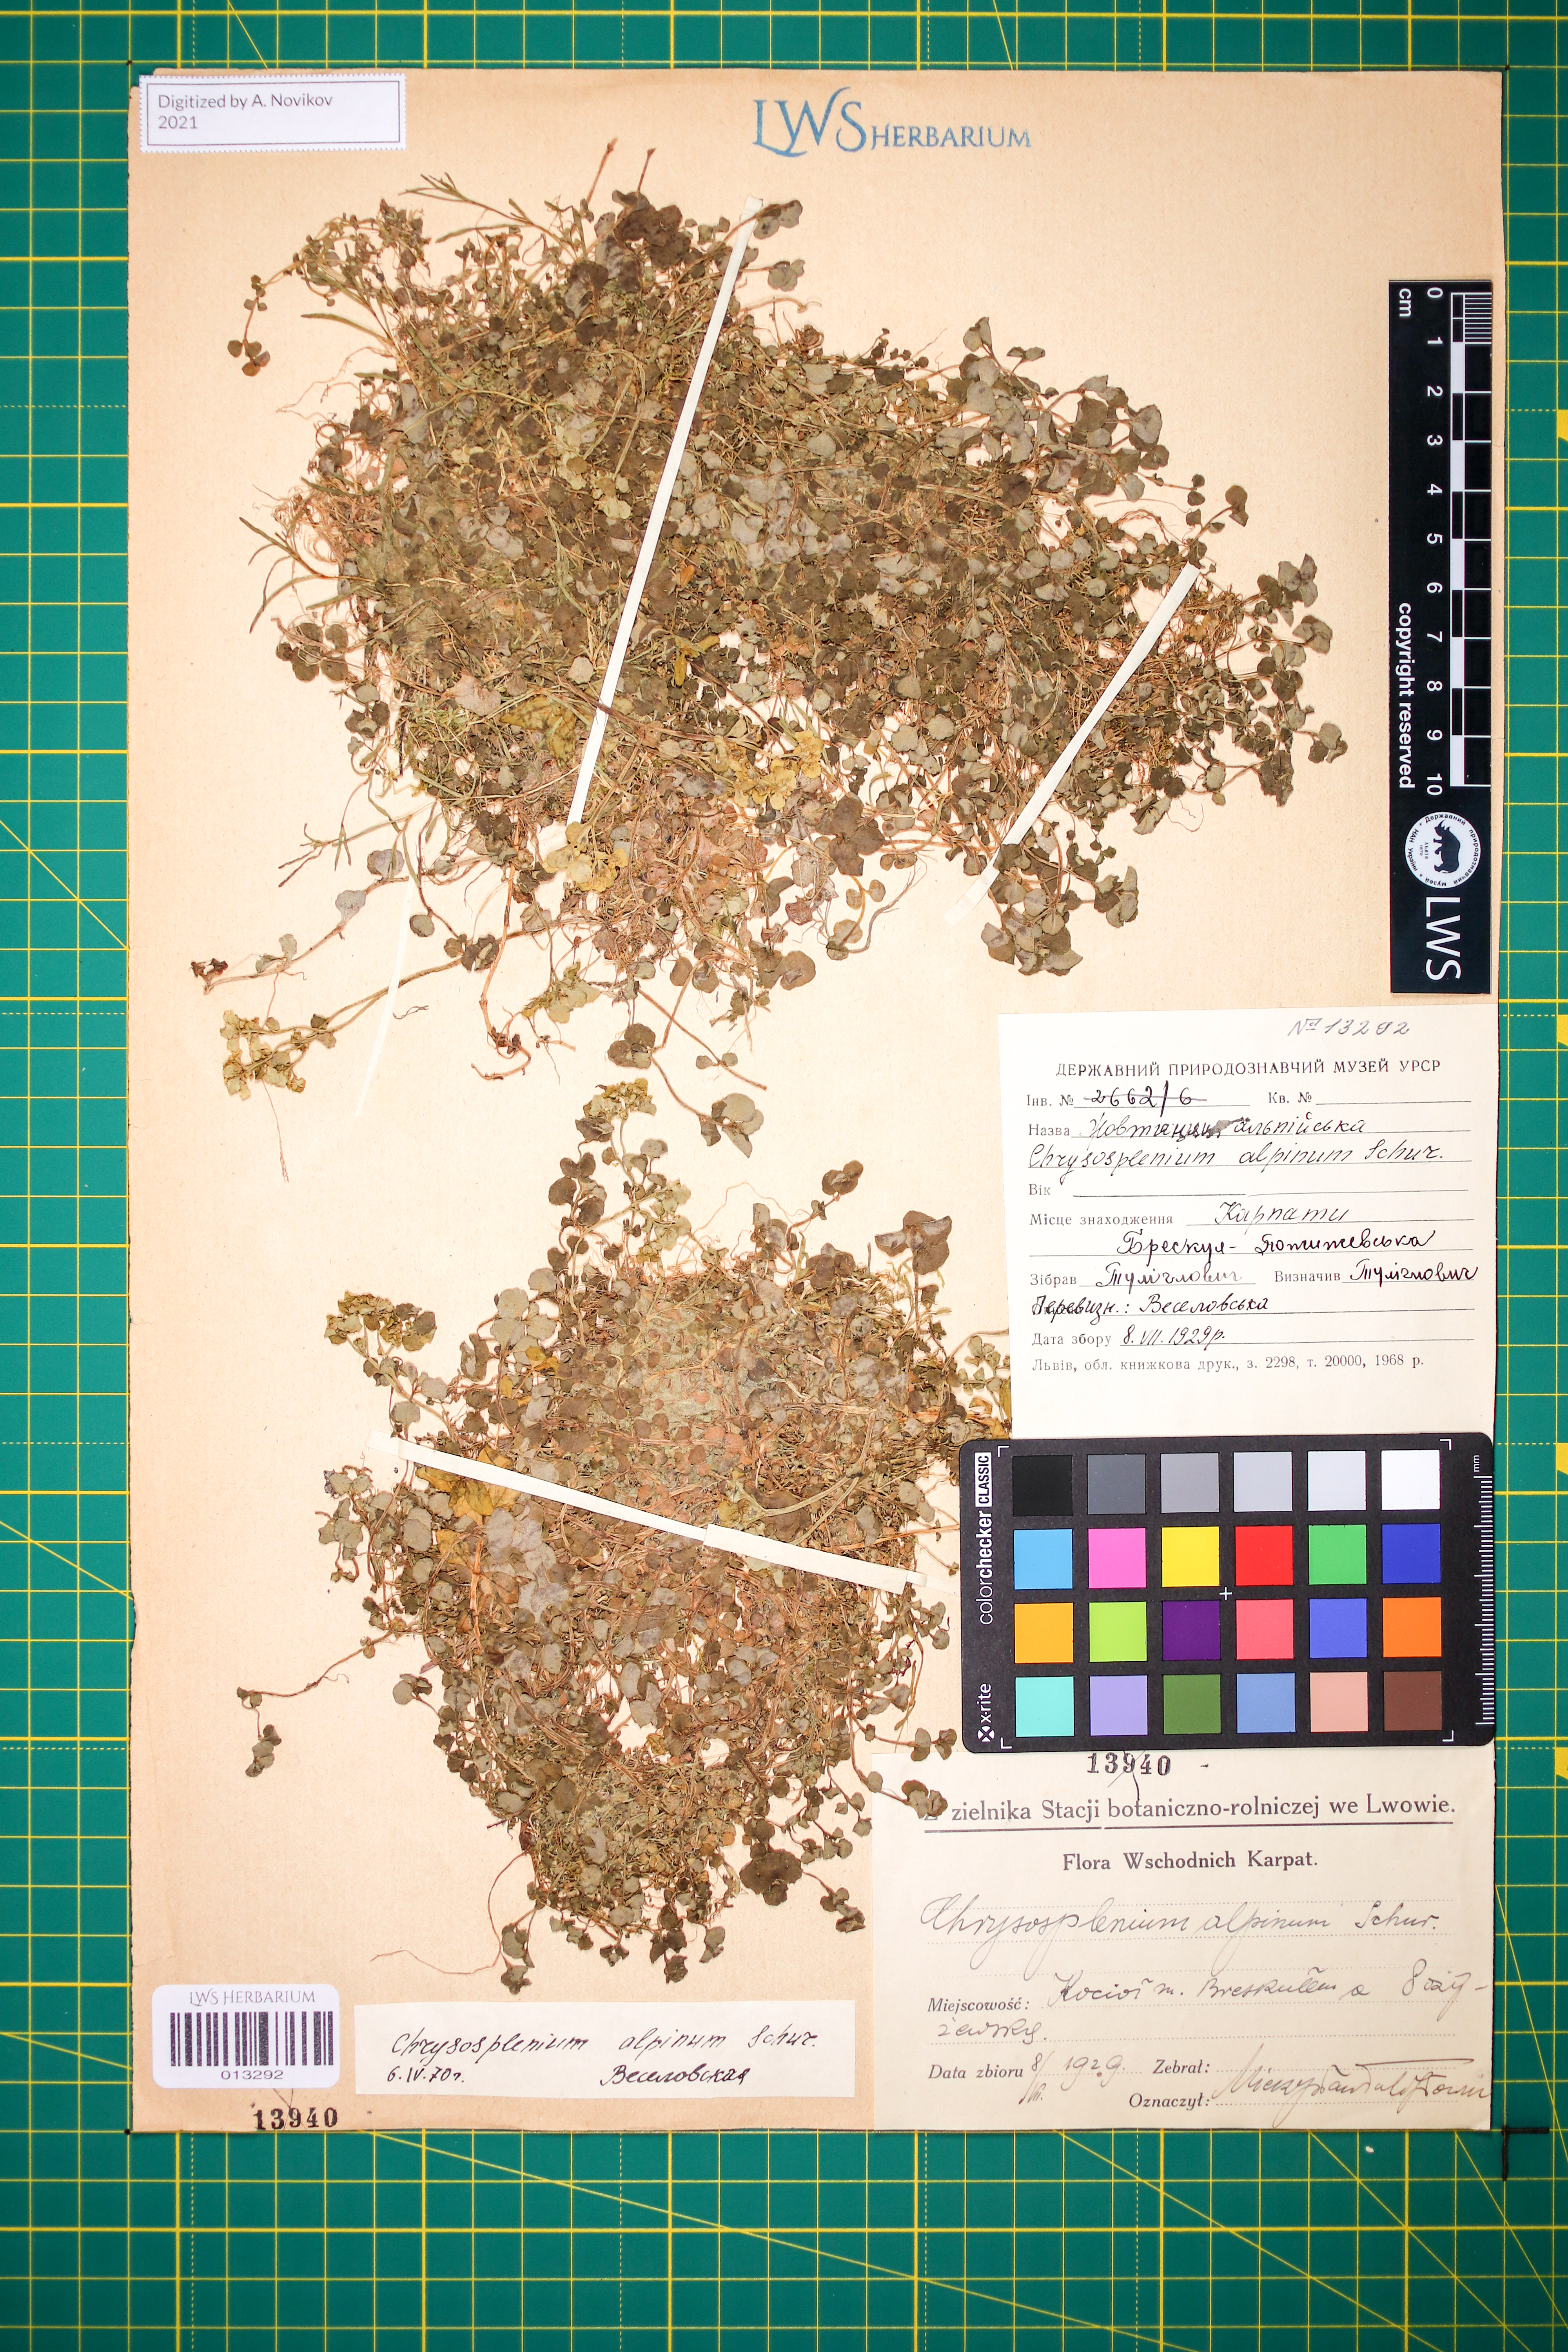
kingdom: Plantae
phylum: Tracheophyta
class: Magnoliopsida
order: Saxifragales
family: Saxifragaceae
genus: Chrysosplenium
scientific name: Chrysosplenium alpinum
